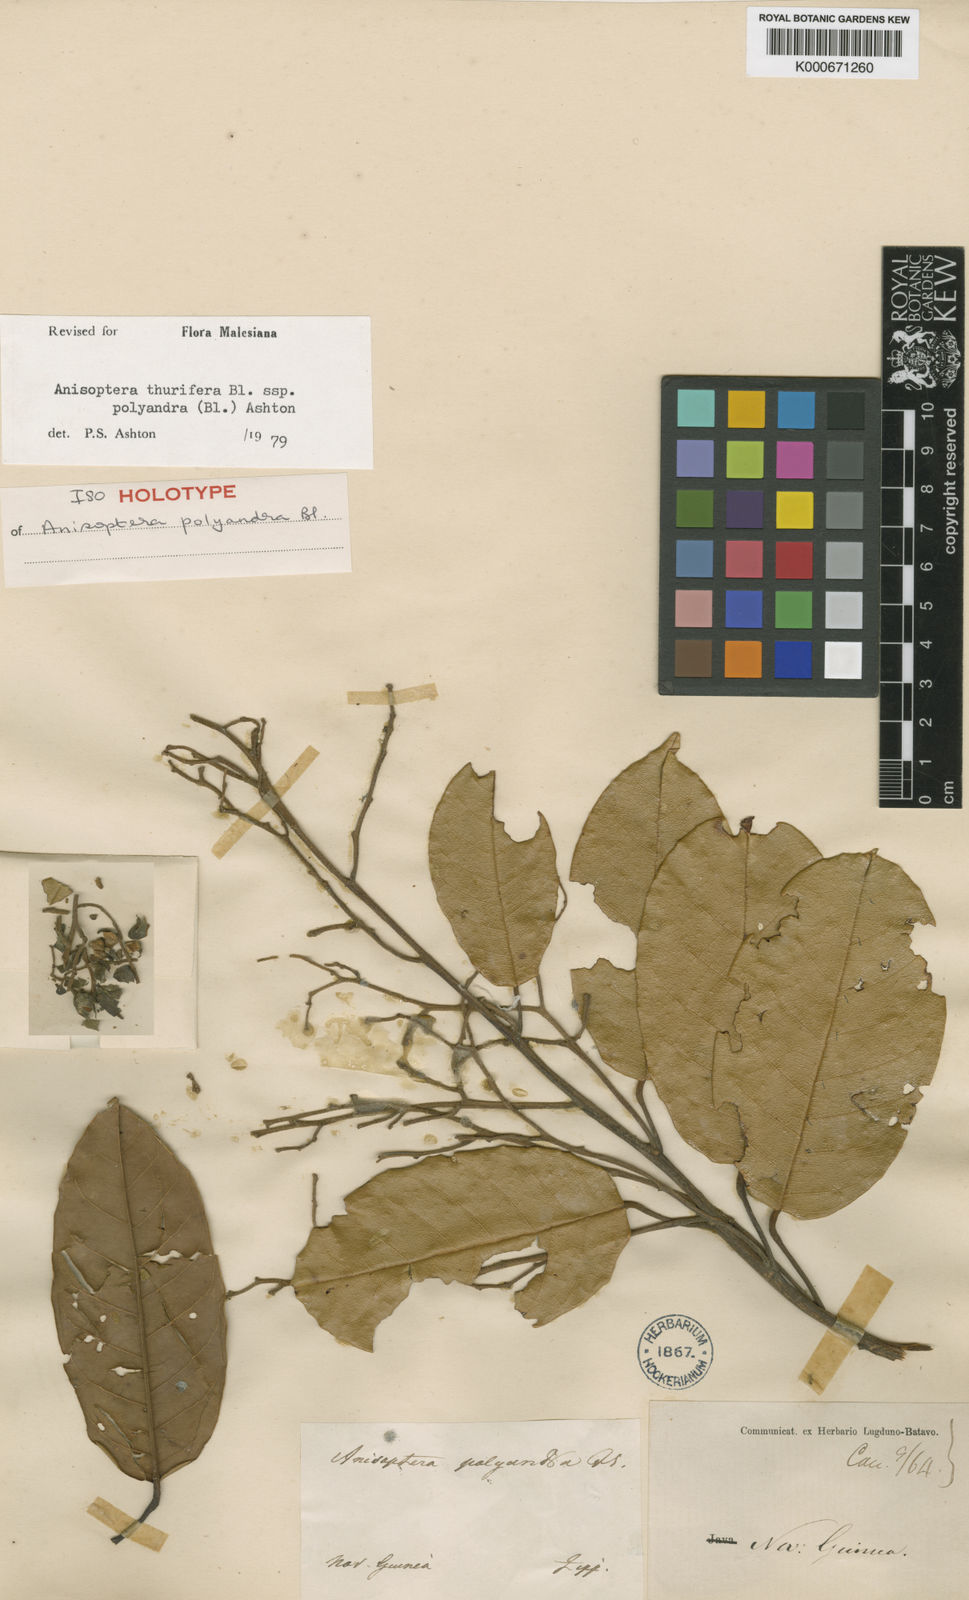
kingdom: Plantae
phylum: Tracheophyta
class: Magnoliopsida
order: Malvales
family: Dipterocarpaceae
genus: Anisoptera
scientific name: Anisoptera thurifera
